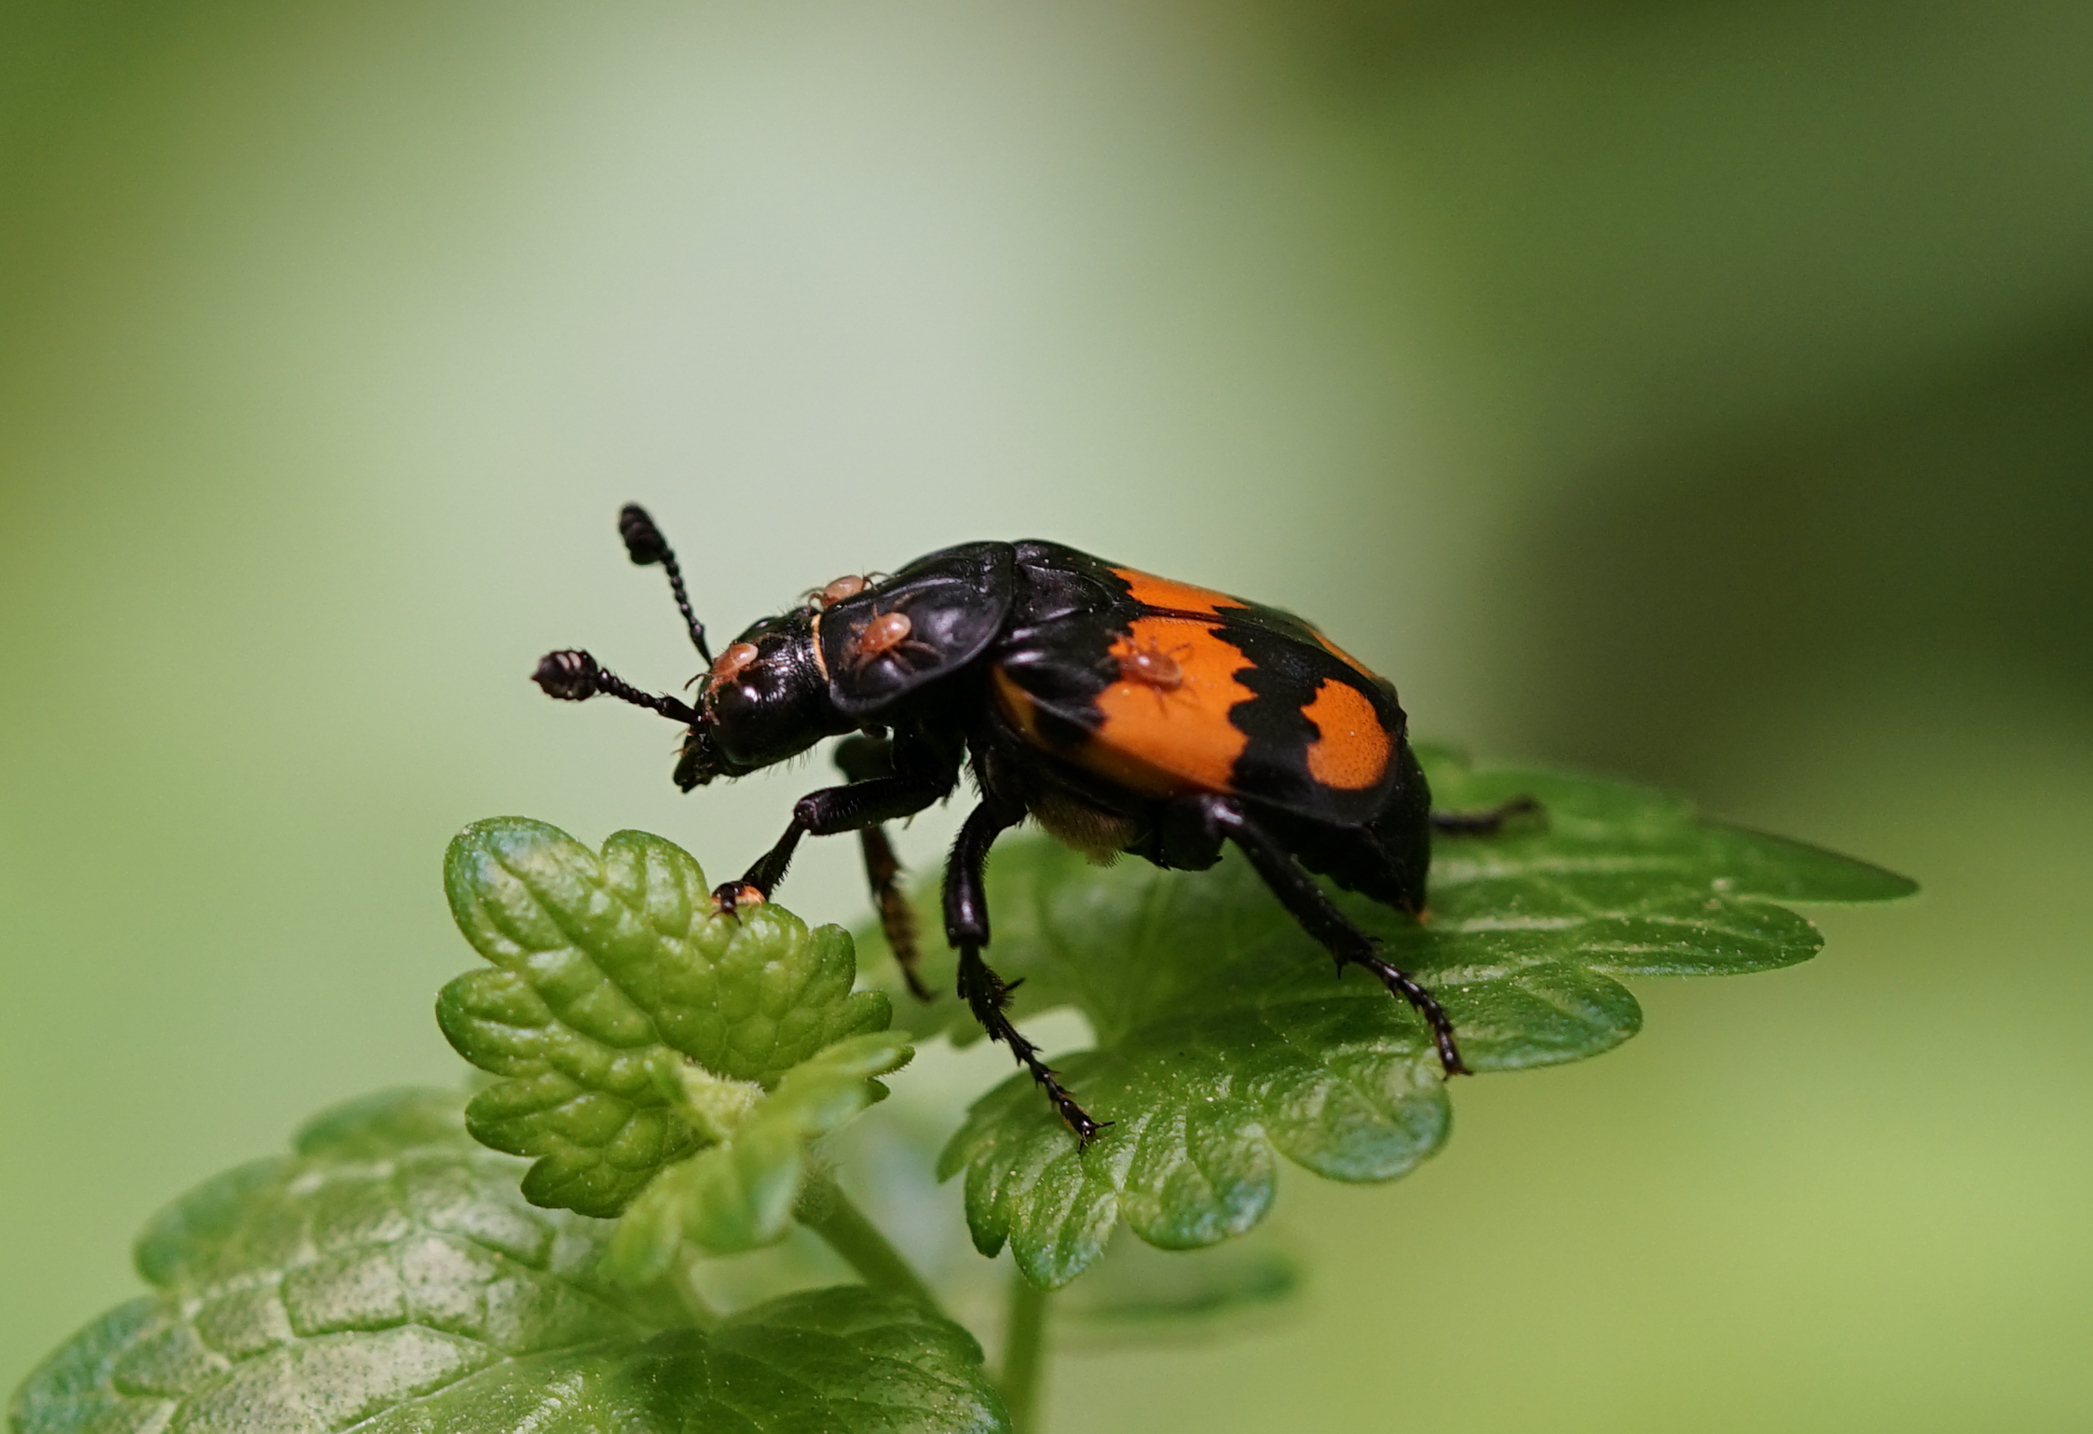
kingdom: Animalia
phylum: Arthropoda
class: Insecta
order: Coleoptera
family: Staphylinidae
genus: Nicrophorus
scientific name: Nicrophorus vespilloides
